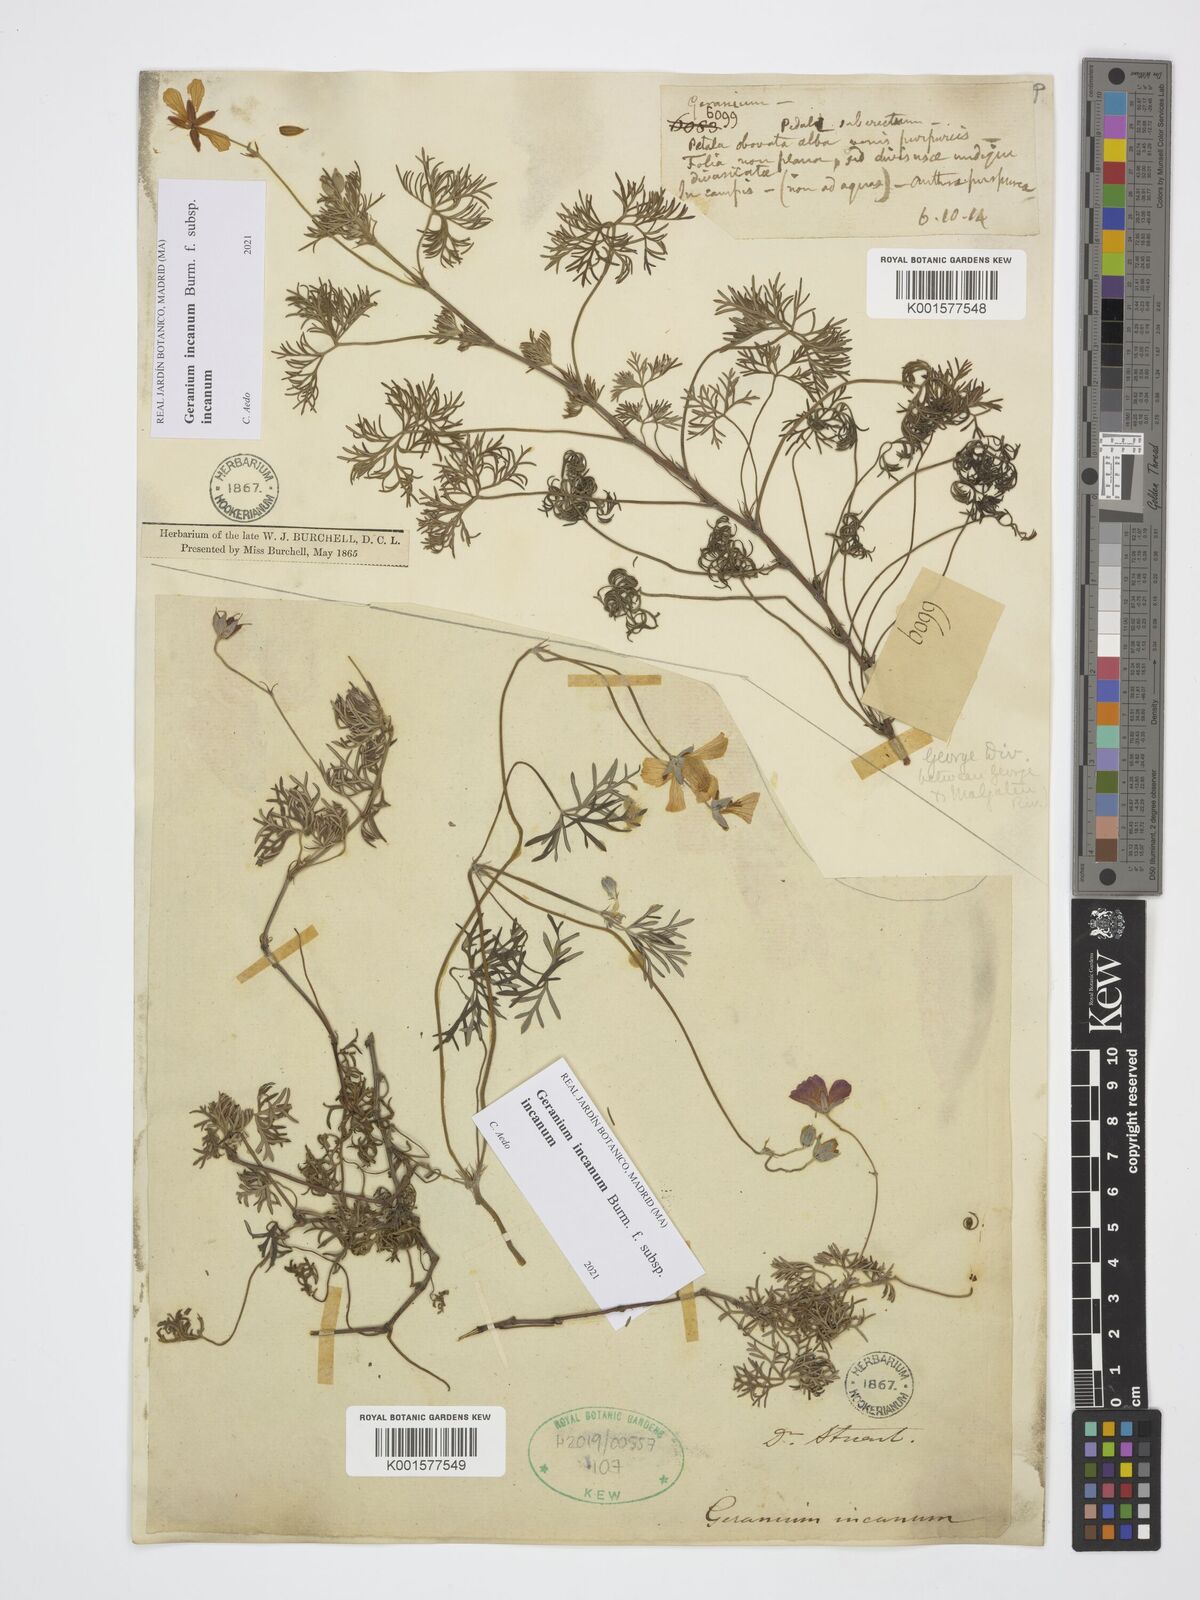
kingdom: Plantae
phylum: Tracheophyta
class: Magnoliopsida
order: Geraniales
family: Geraniaceae
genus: Geranium
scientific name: Geranium incanum
